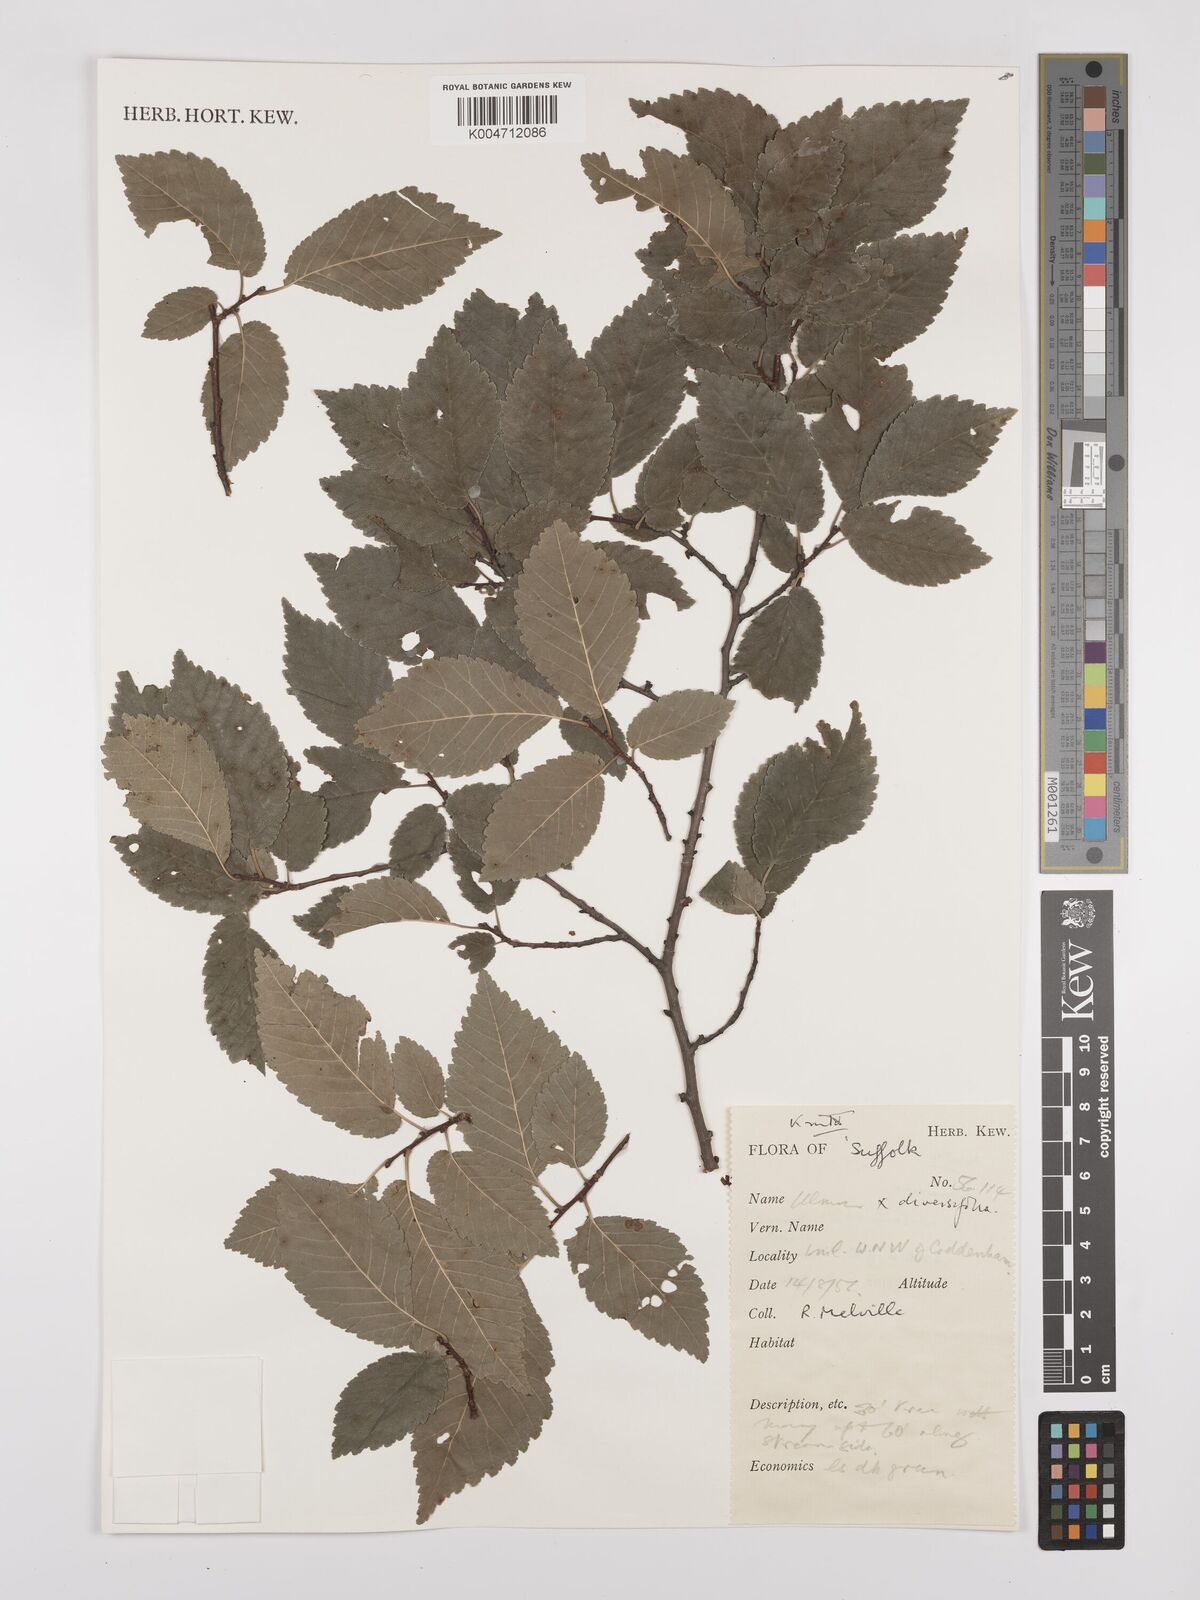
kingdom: Plantae
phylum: Tracheophyta
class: Magnoliopsida
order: Rosales
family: Ulmaceae
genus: Ulmus
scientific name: Ulmus minor
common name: Small-leaved elm
